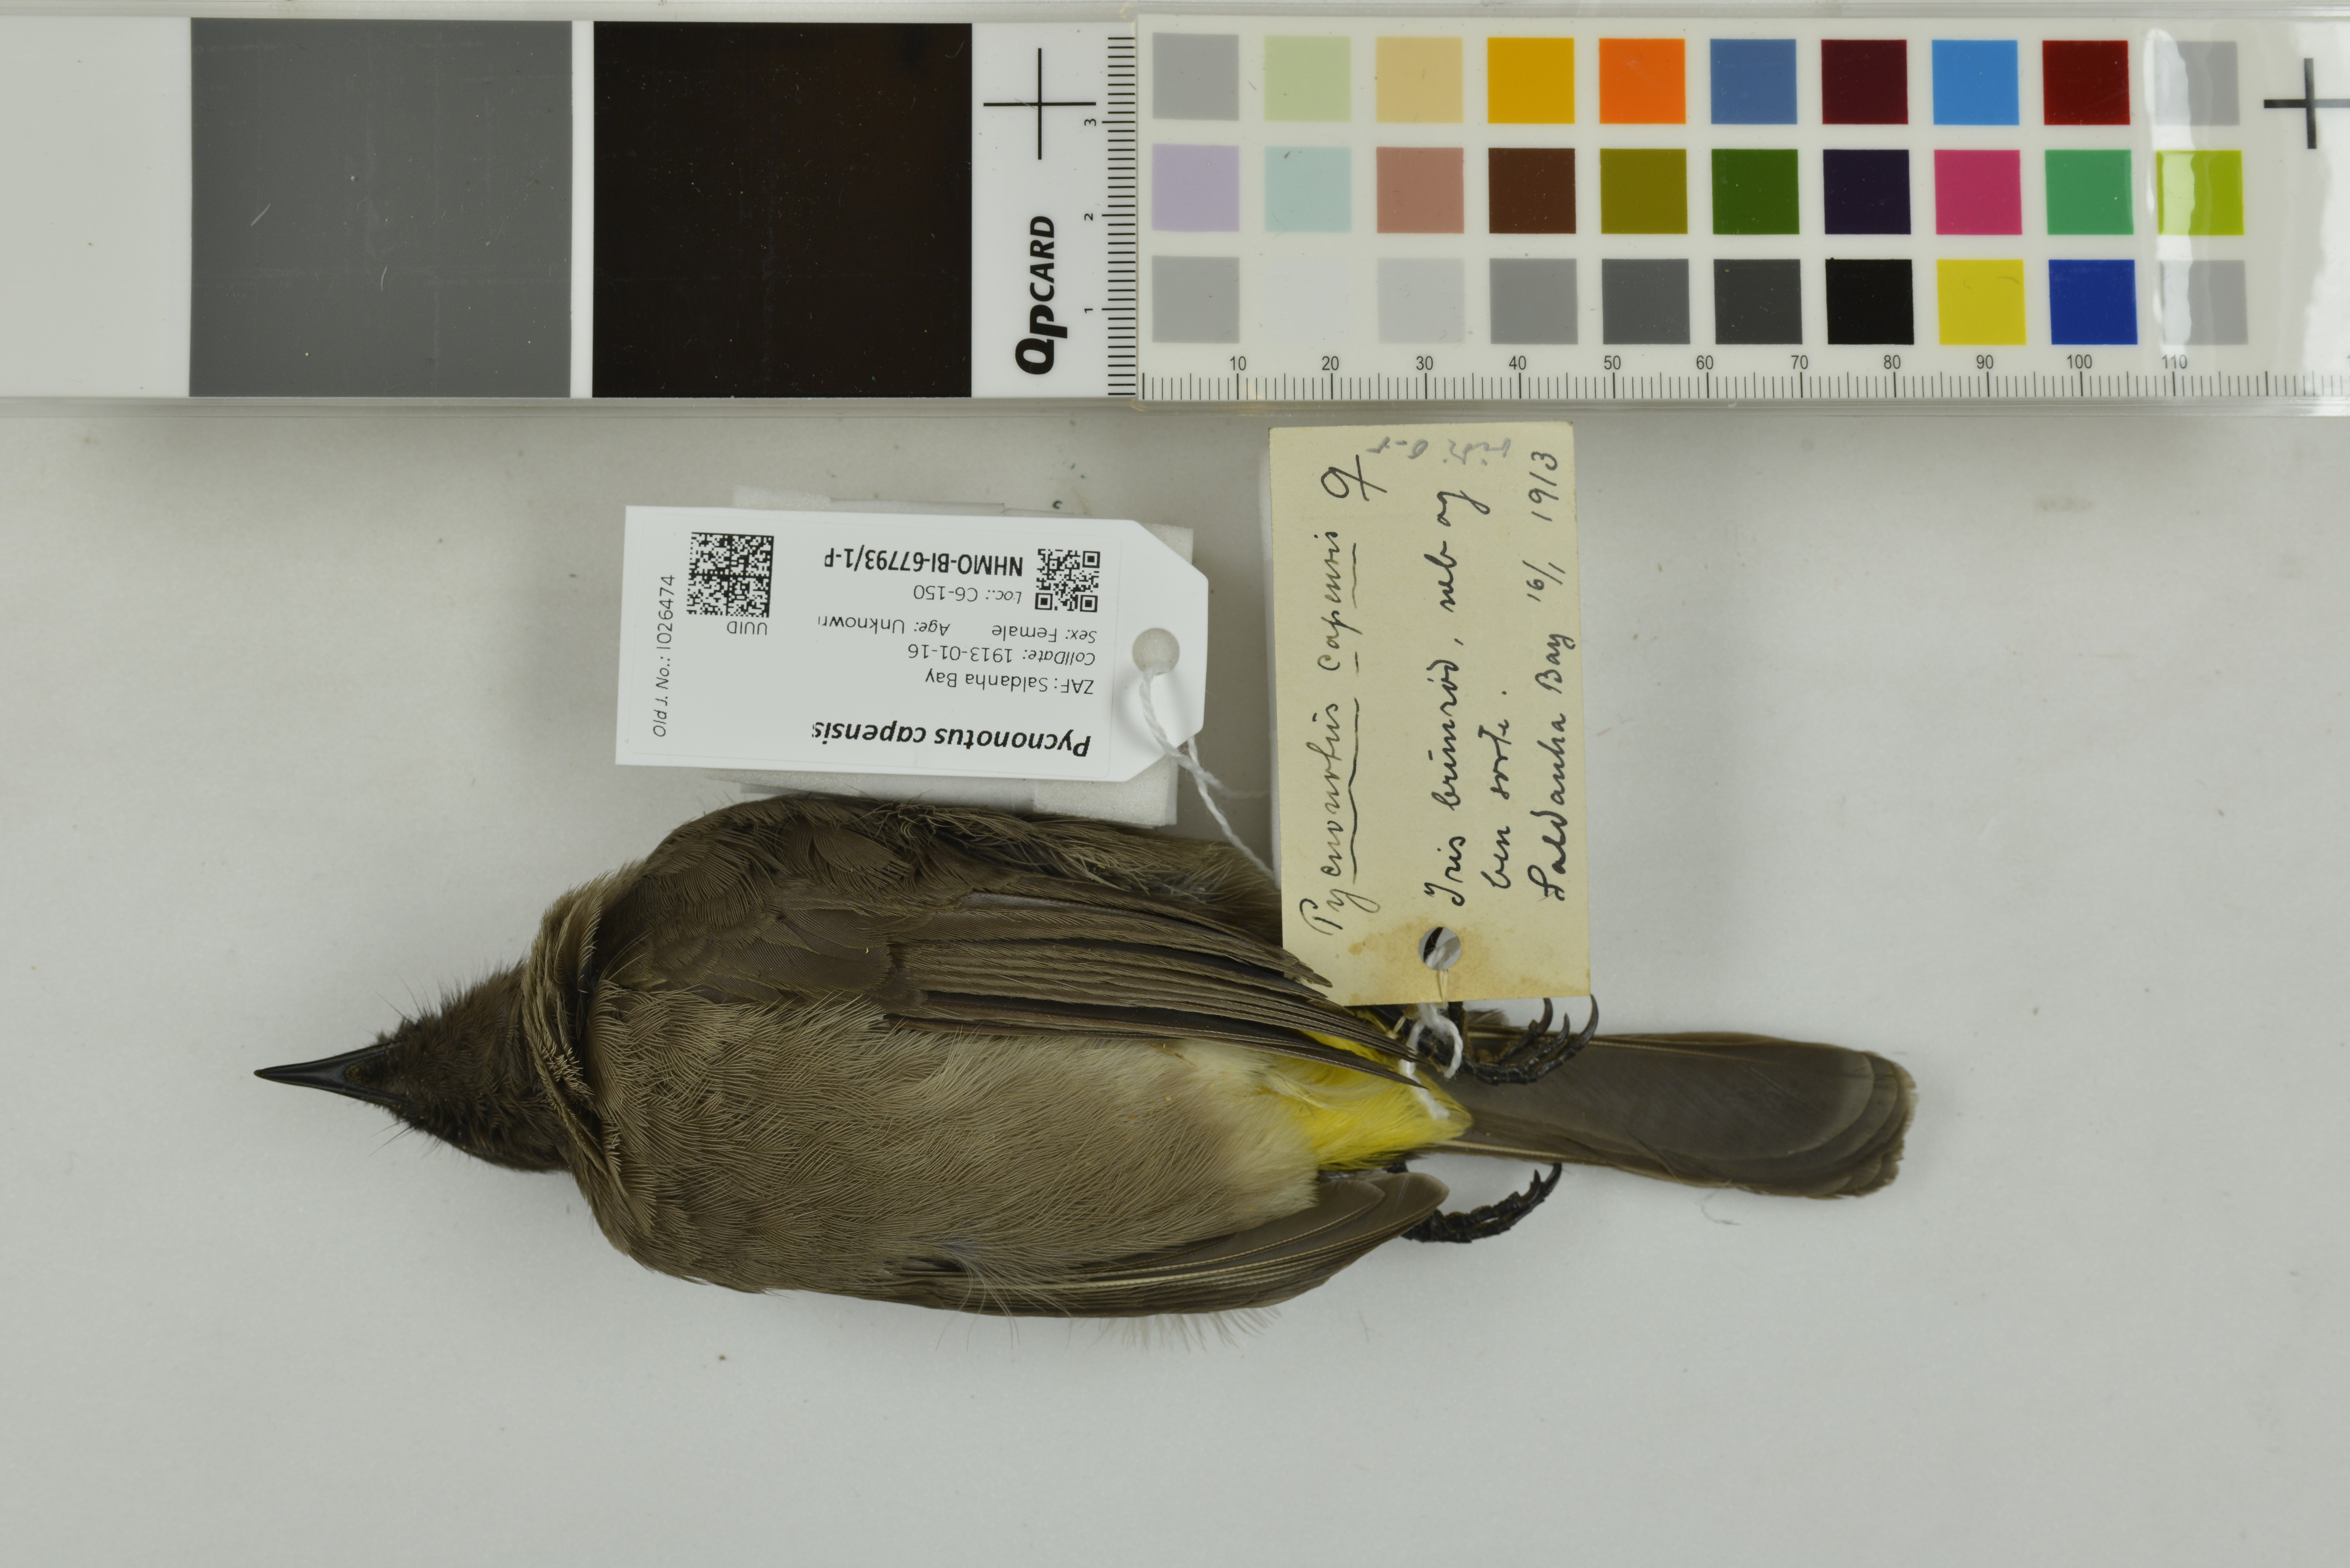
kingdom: Animalia
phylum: Chordata
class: Aves
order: Passeriformes
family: Pycnonotidae
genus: Pycnonotus
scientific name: Pycnonotus capensis
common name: Cape bulbul
